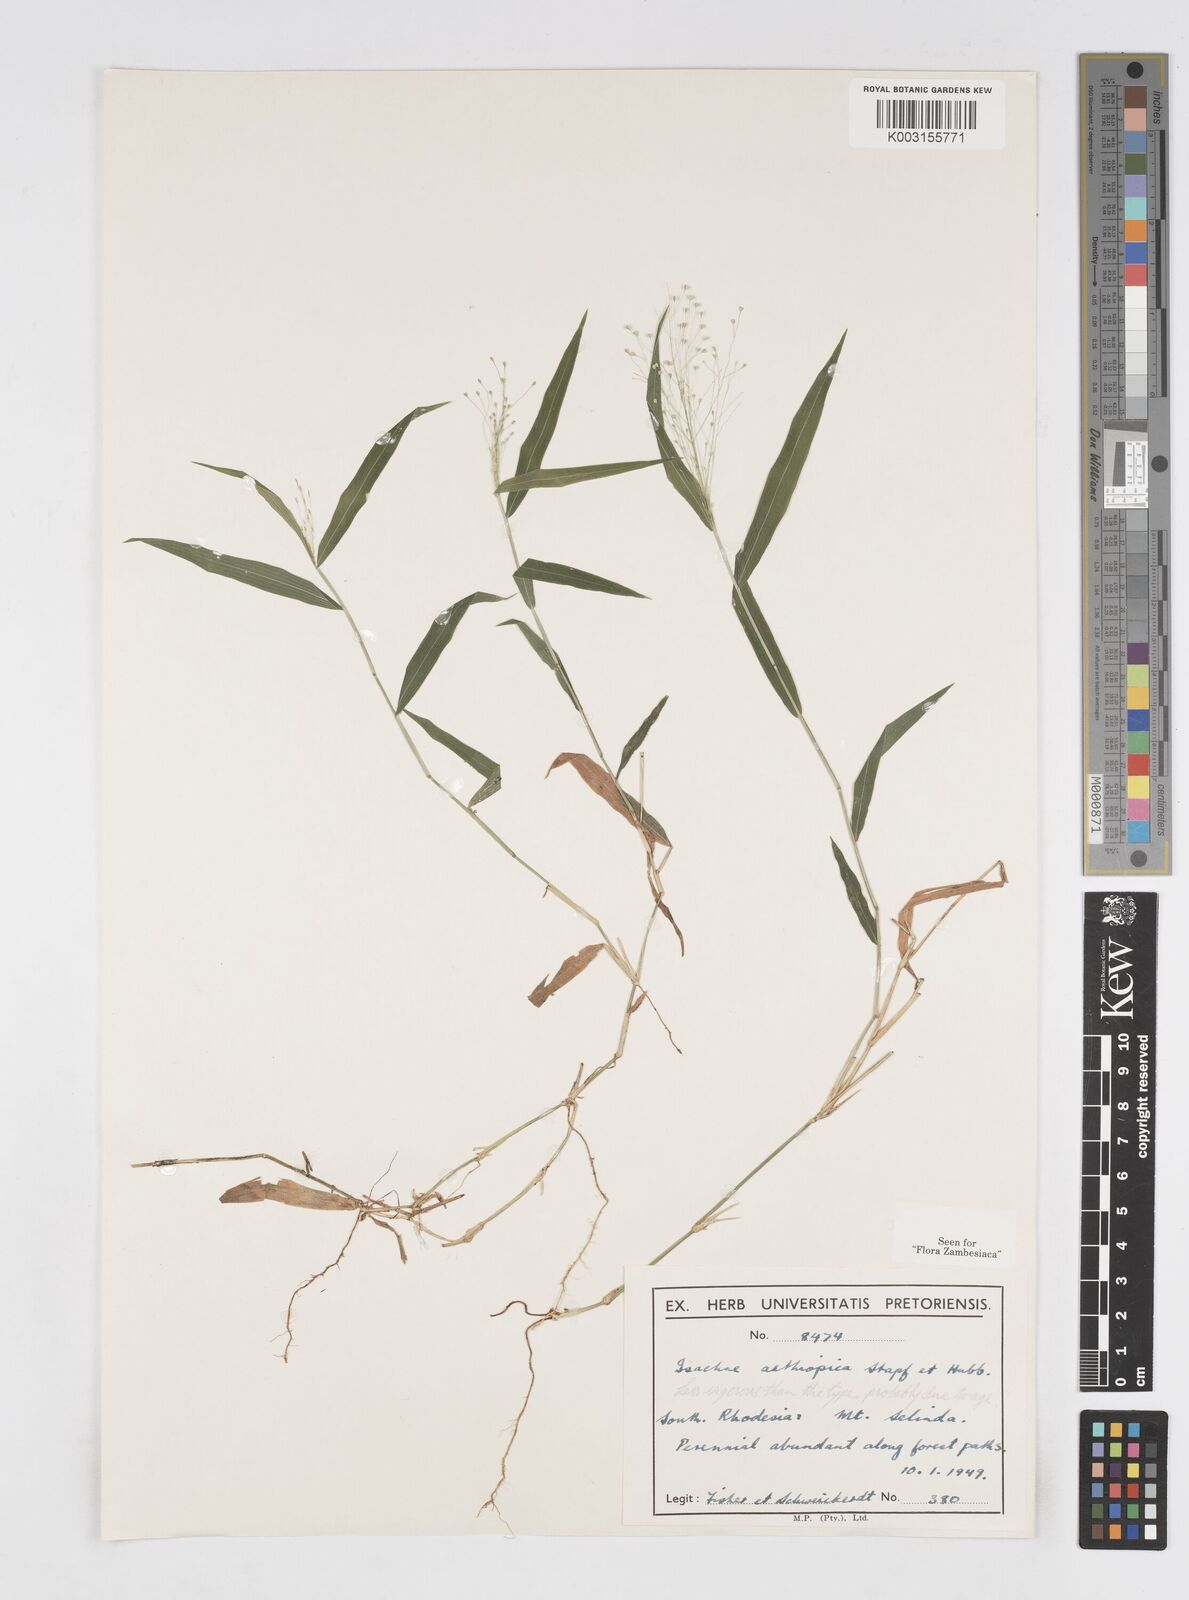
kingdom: Plantae
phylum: Tracheophyta
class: Liliopsida
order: Poales
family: Poaceae
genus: Isachne
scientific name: Isachne mauritiana
